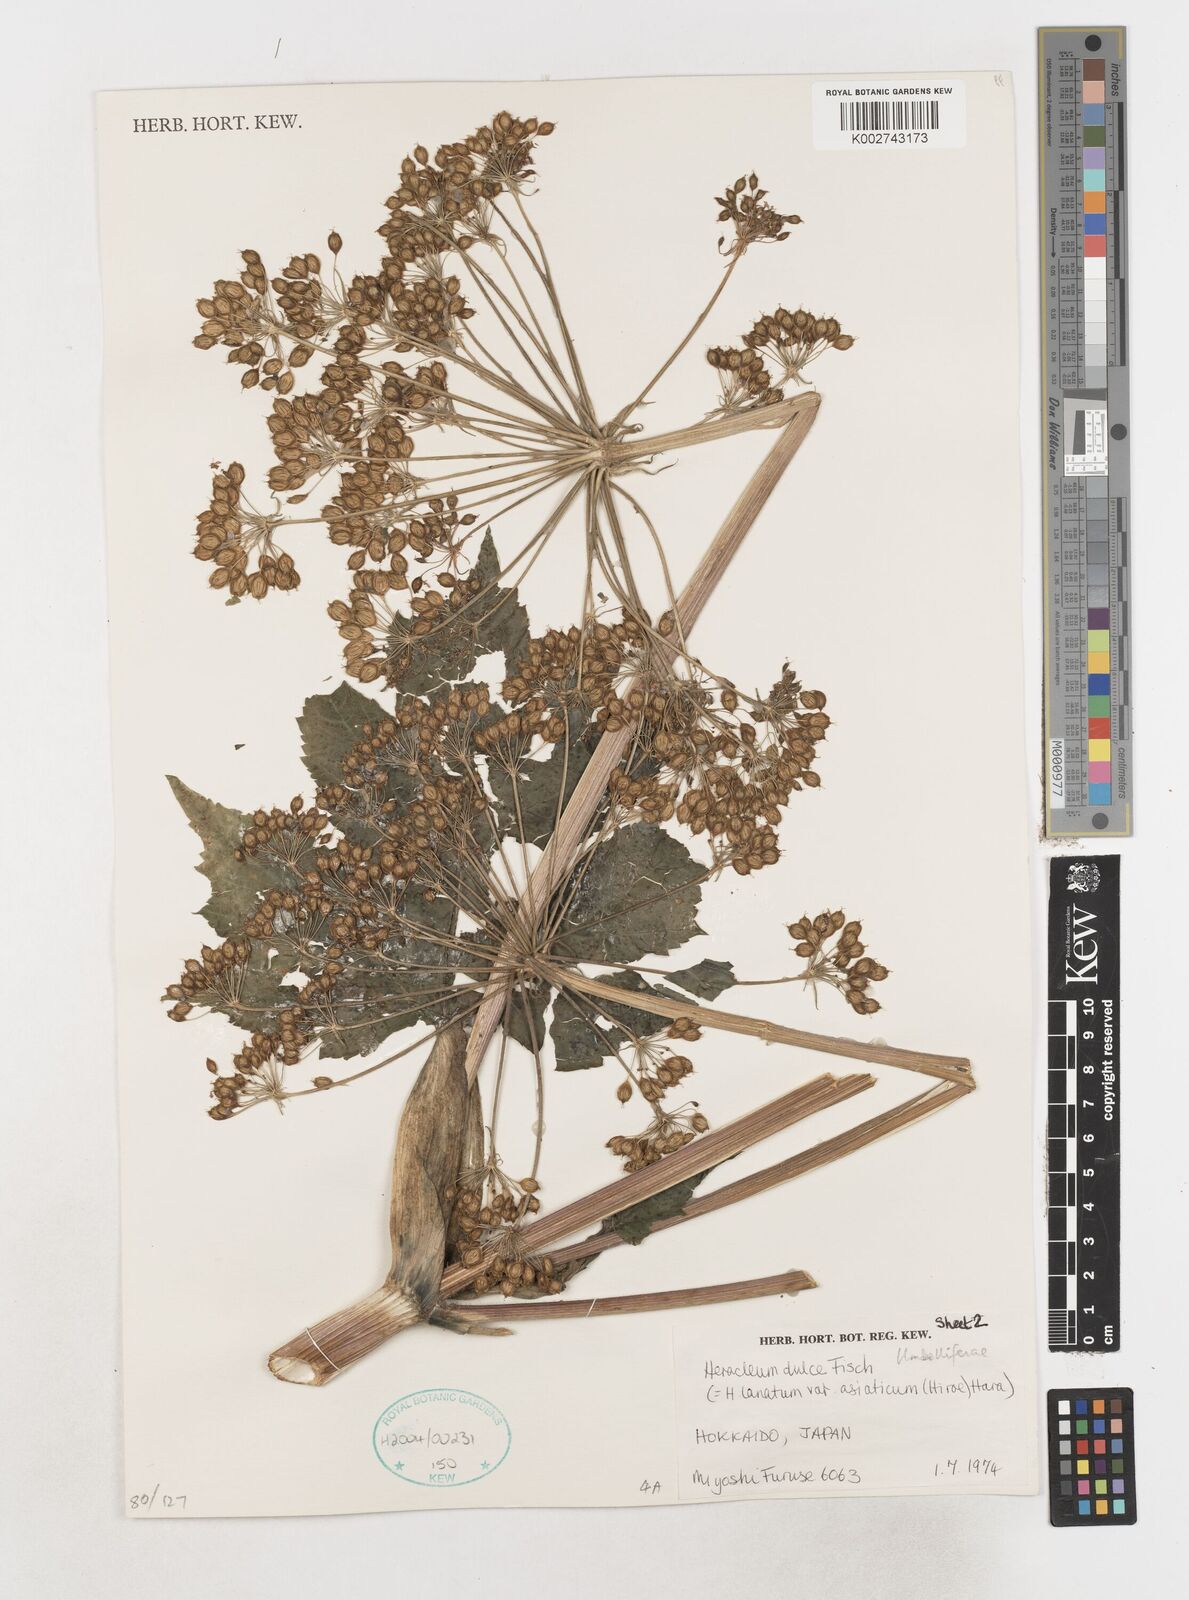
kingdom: Plantae
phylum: Tracheophyta
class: Magnoliopsida
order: Apiales
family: Apiaceae
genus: Heracleum
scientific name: Heracleum maximum
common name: American cow parsnip
